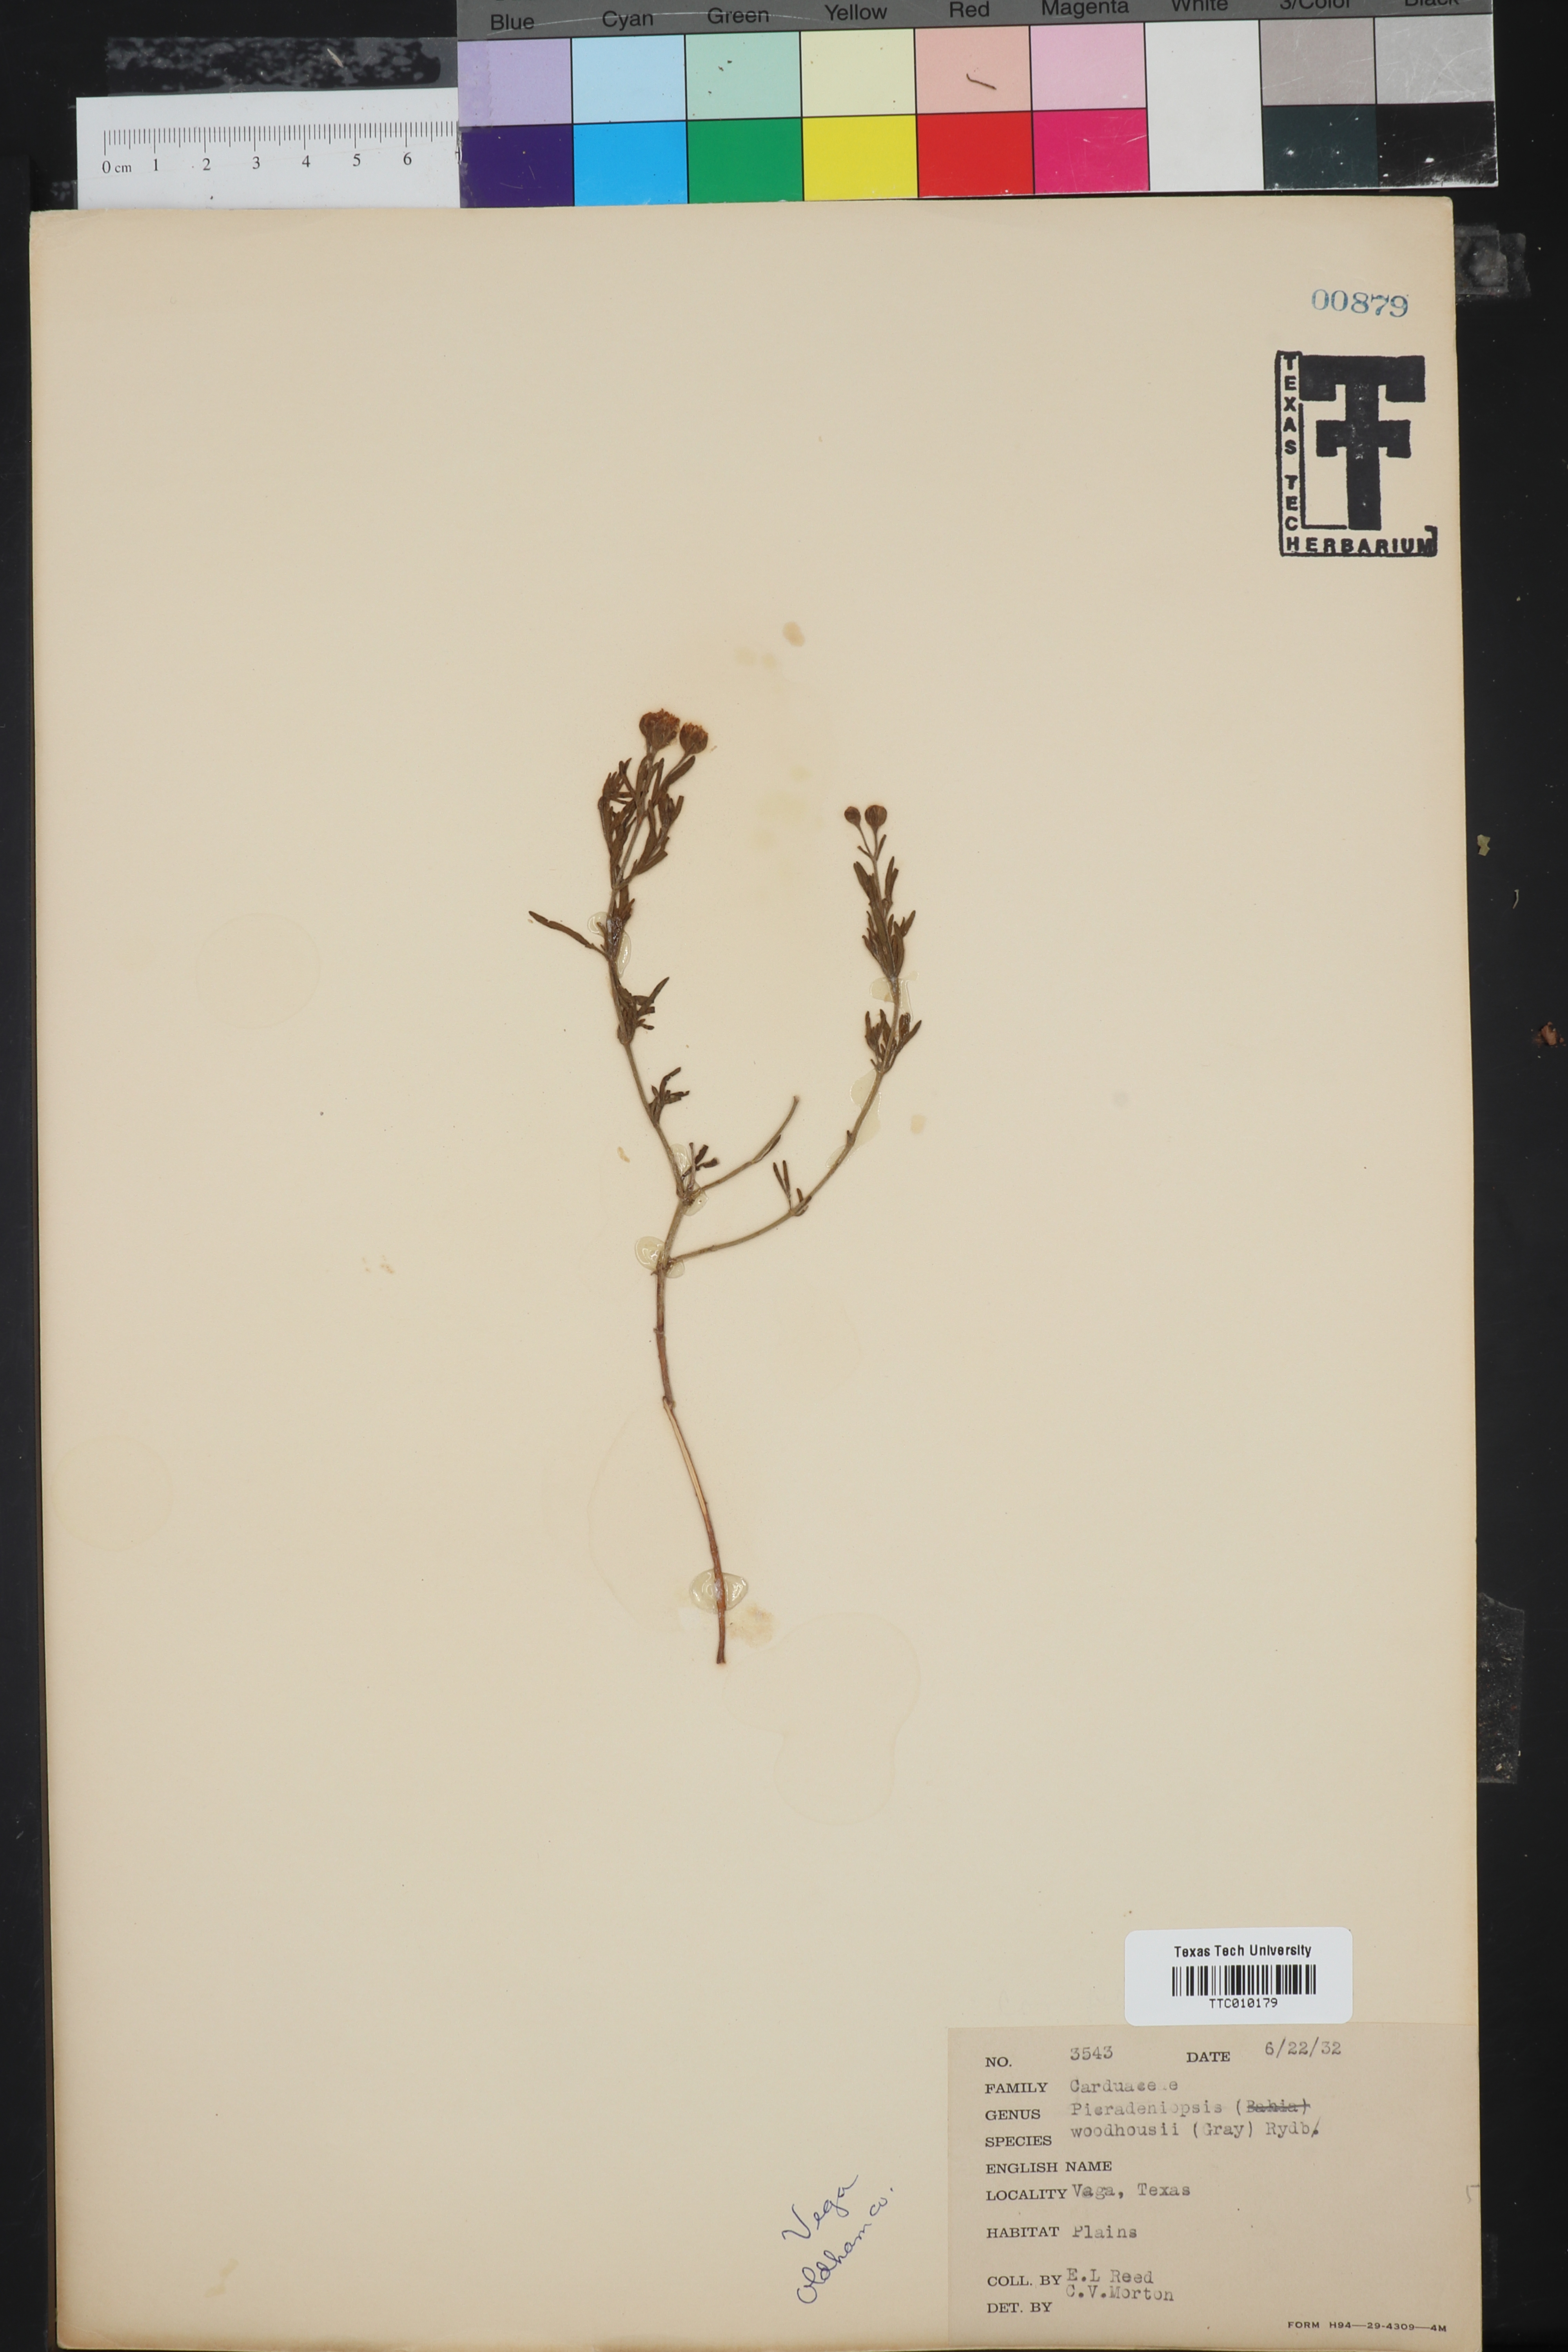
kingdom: Plantae
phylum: Tracheophyta
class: Magnoliopsida
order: Asterales
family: Asteraceae
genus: Picradeniopsis
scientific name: Picradeniopsis woodhousei
